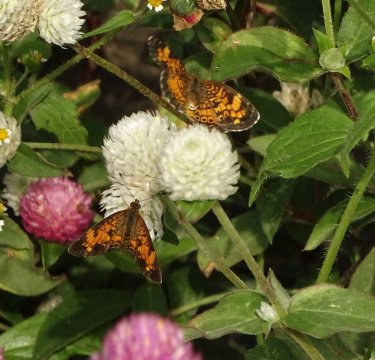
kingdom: Animalia
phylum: Arthropoda
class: Insecta
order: Lepidoptera
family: Nymphalidae
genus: Phyciodes
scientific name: Phyciodes
